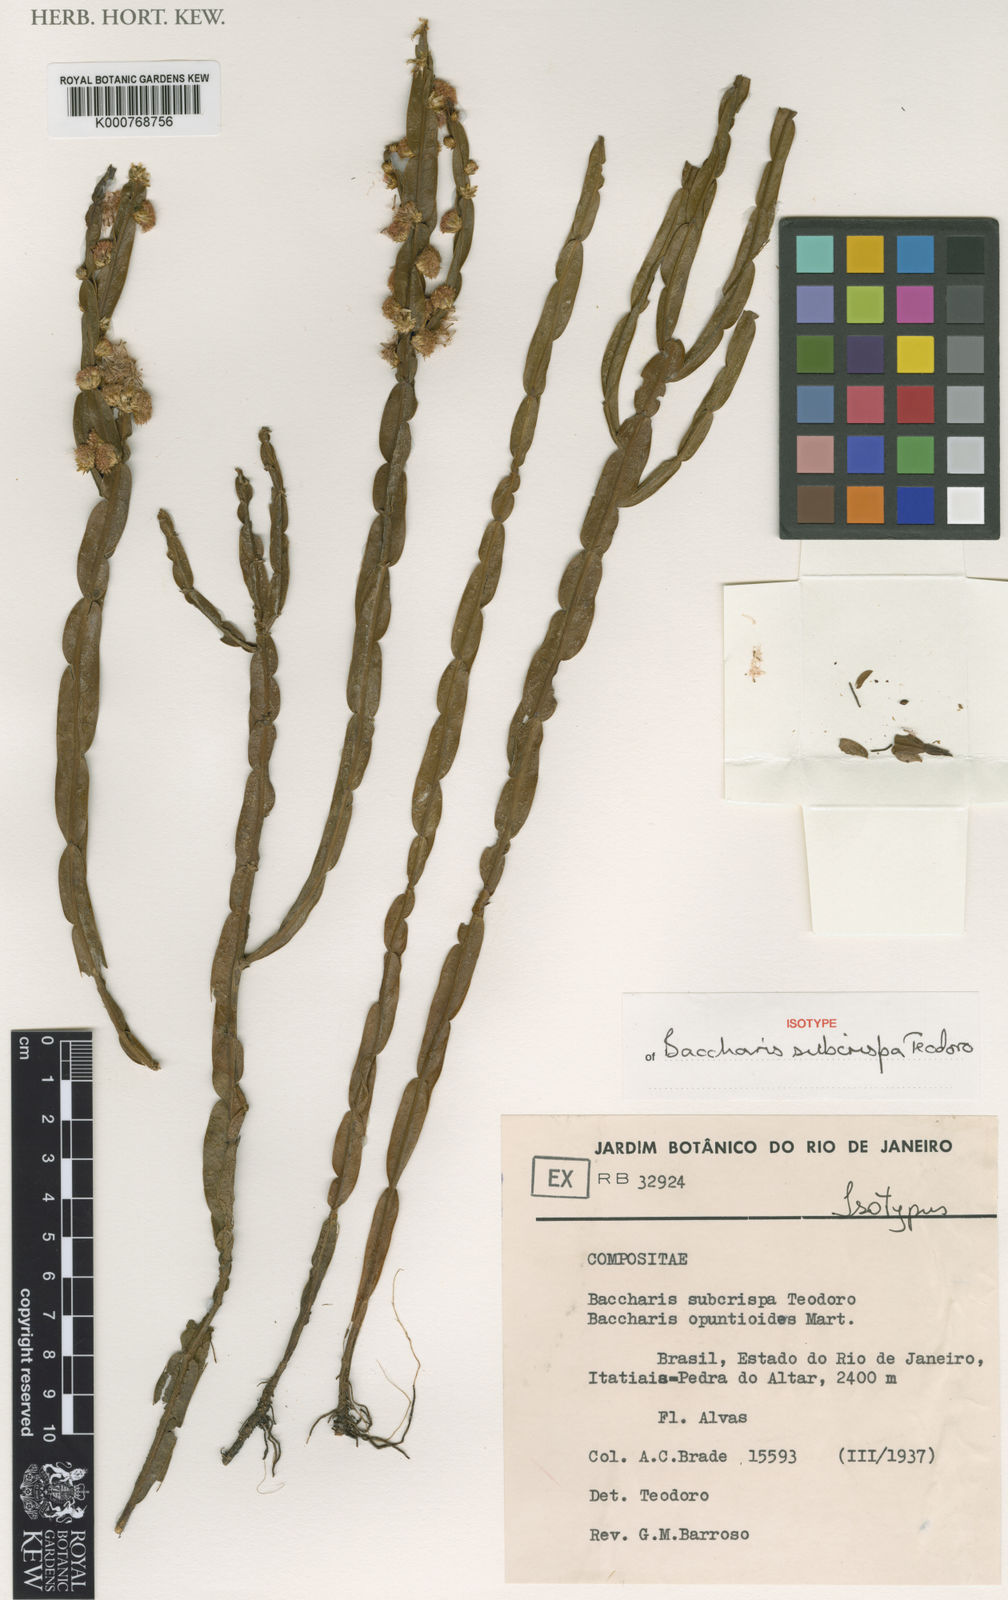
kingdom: Plantae
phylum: Tracheophyta
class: Magnoliopsida
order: Asterales
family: Asteraceae
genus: Baccharis
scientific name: Baccharis
